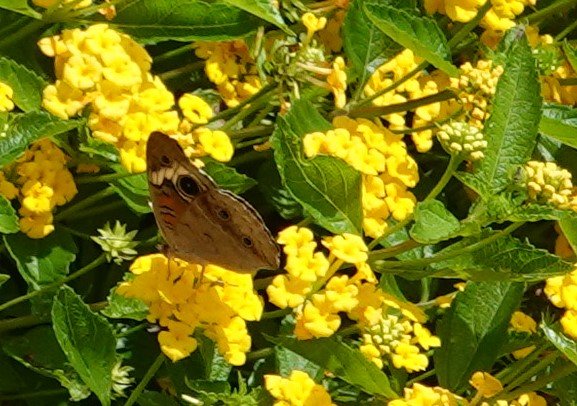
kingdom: Animalia
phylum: Arthropoda
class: Insecta
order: Lepidoptera
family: Nymphalidae
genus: Junonia
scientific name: Junonia coenia
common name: Common Buckeye
